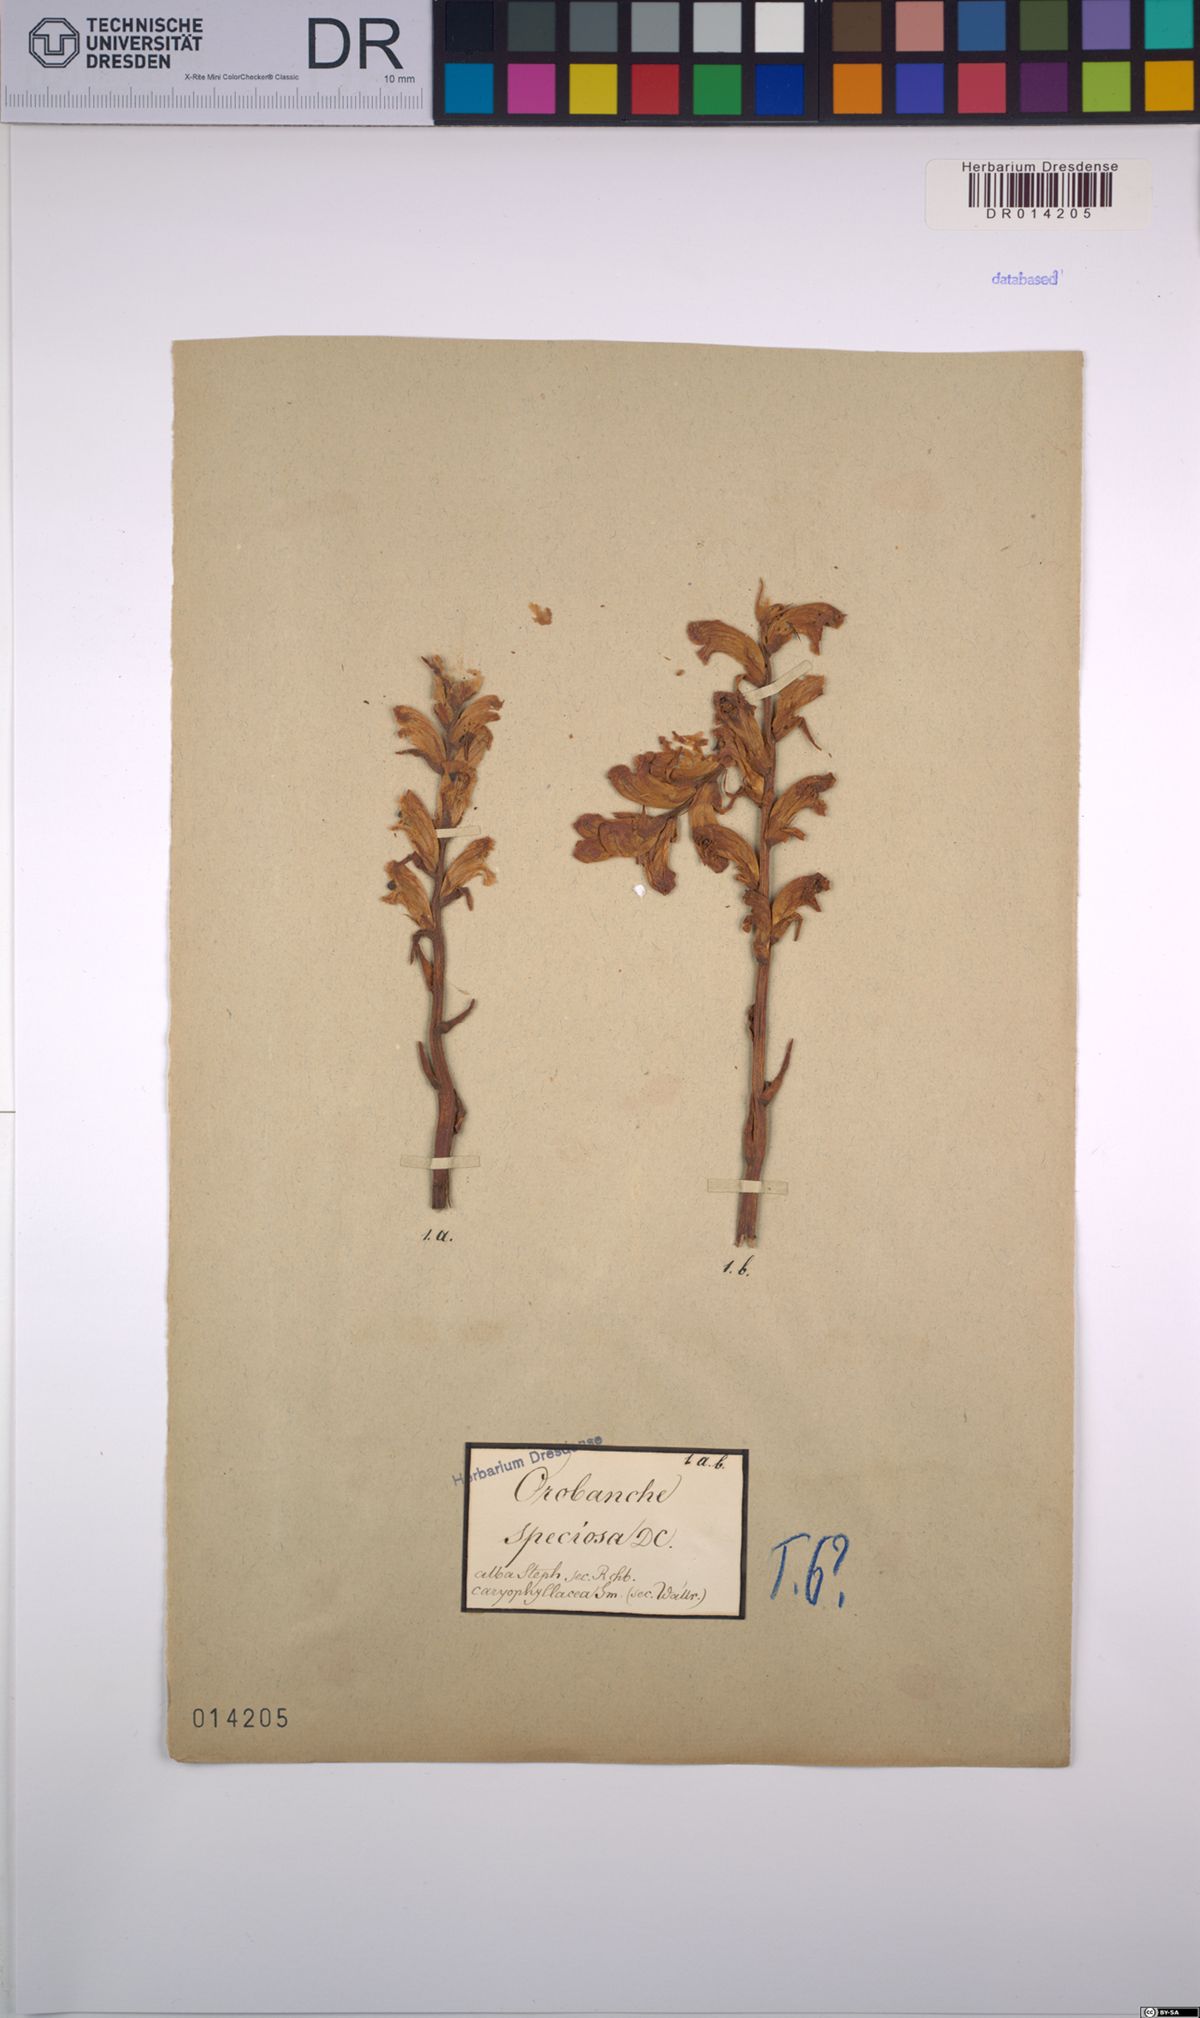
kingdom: Plantae
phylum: Tracheophyta
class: Magnoliopsida
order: Lamiales
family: Orobanchaceae
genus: Orobanche
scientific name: Orobanche crenata
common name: Bean broomrape
